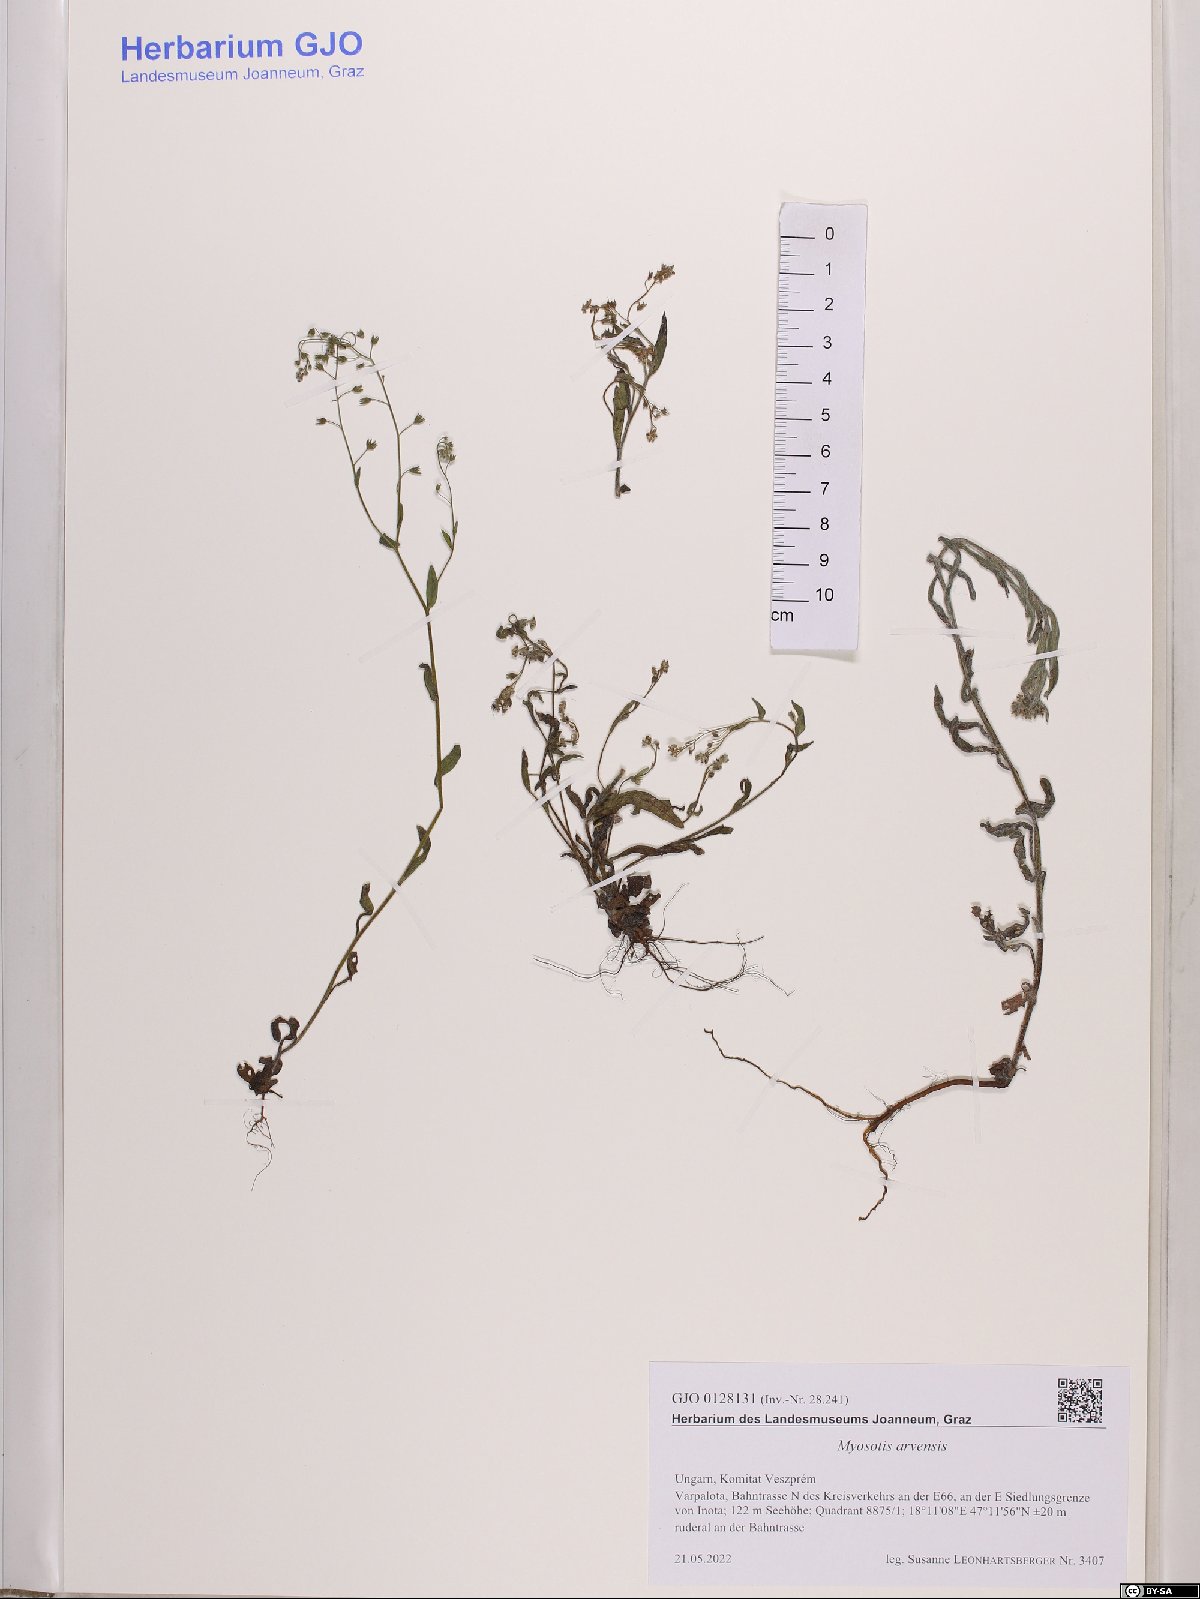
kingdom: Plantae
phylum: Tracheophyta
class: Magnoliopsida
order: Boraginales
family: Boraginaceae
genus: Myosotis
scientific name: Myosotis arvensis
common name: Field forget-me-not
